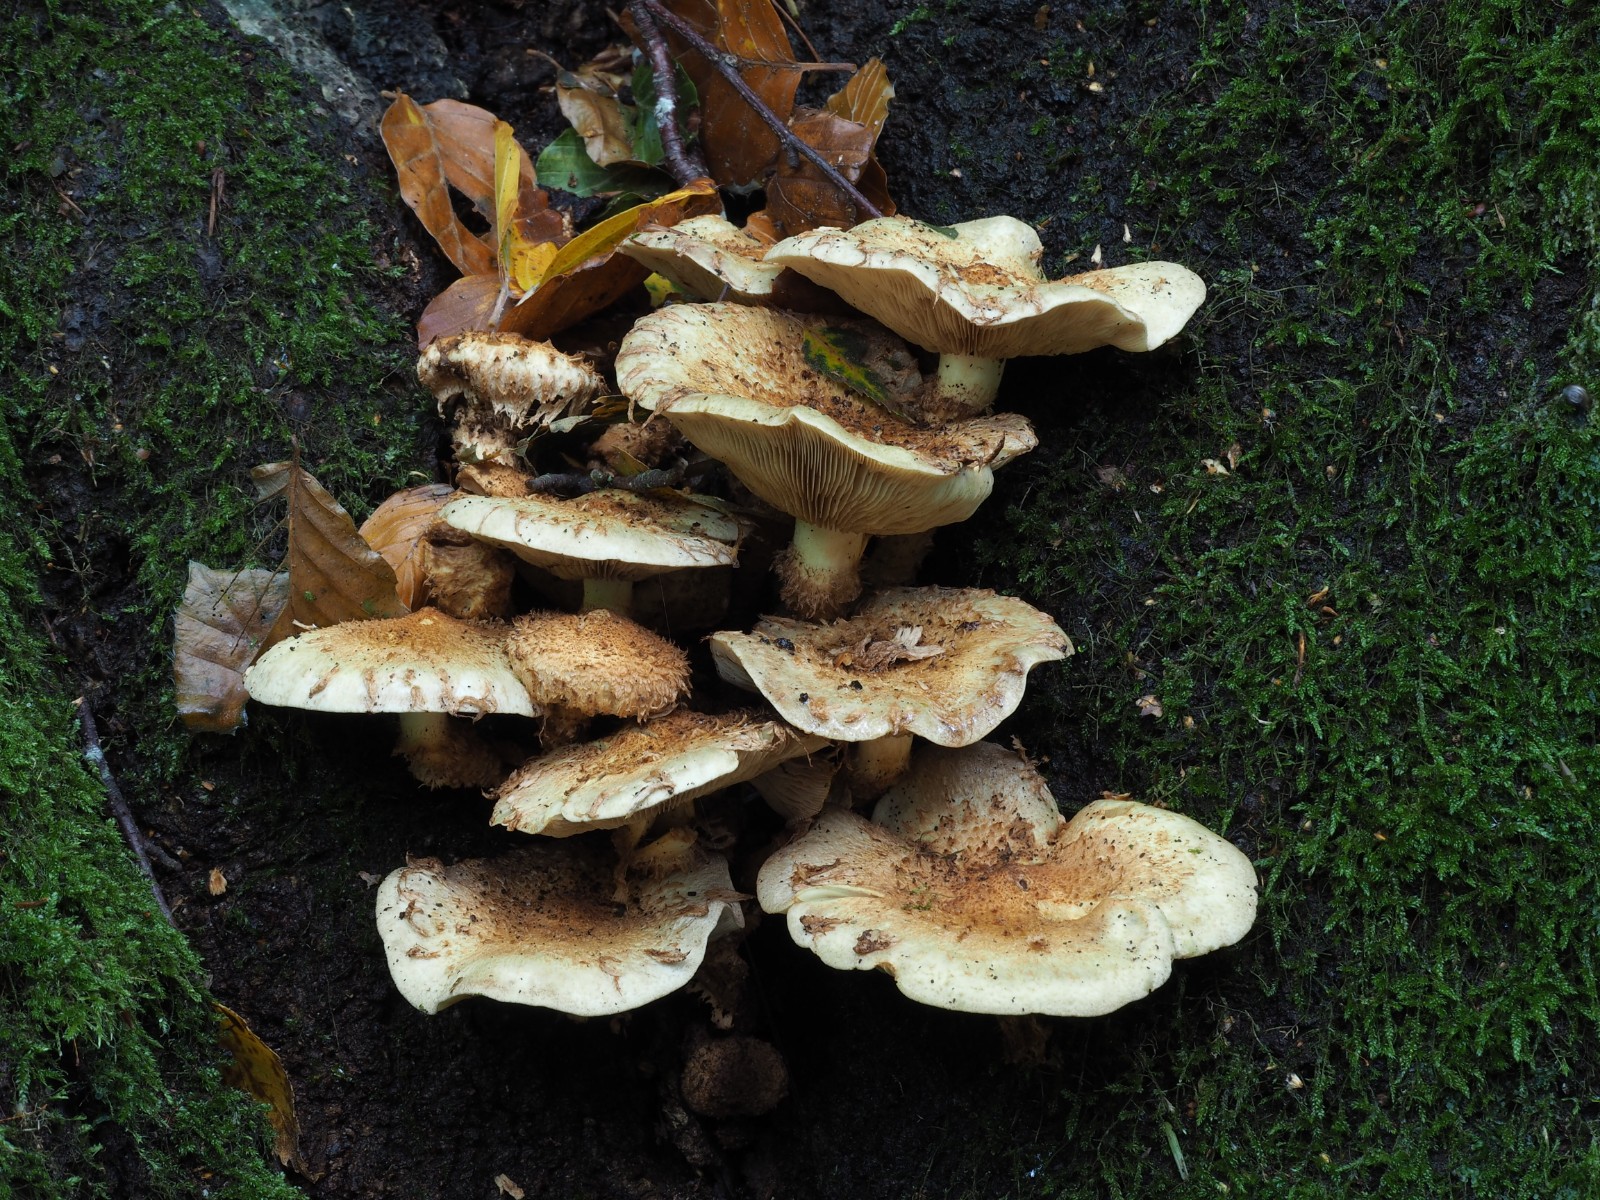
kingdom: Fungi
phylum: Basidiomycota
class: Agaricomycetes
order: Agaricales
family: Strophariaceae
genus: Pholiota
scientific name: Pholiota squarrosa
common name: krumskællet skælhat
